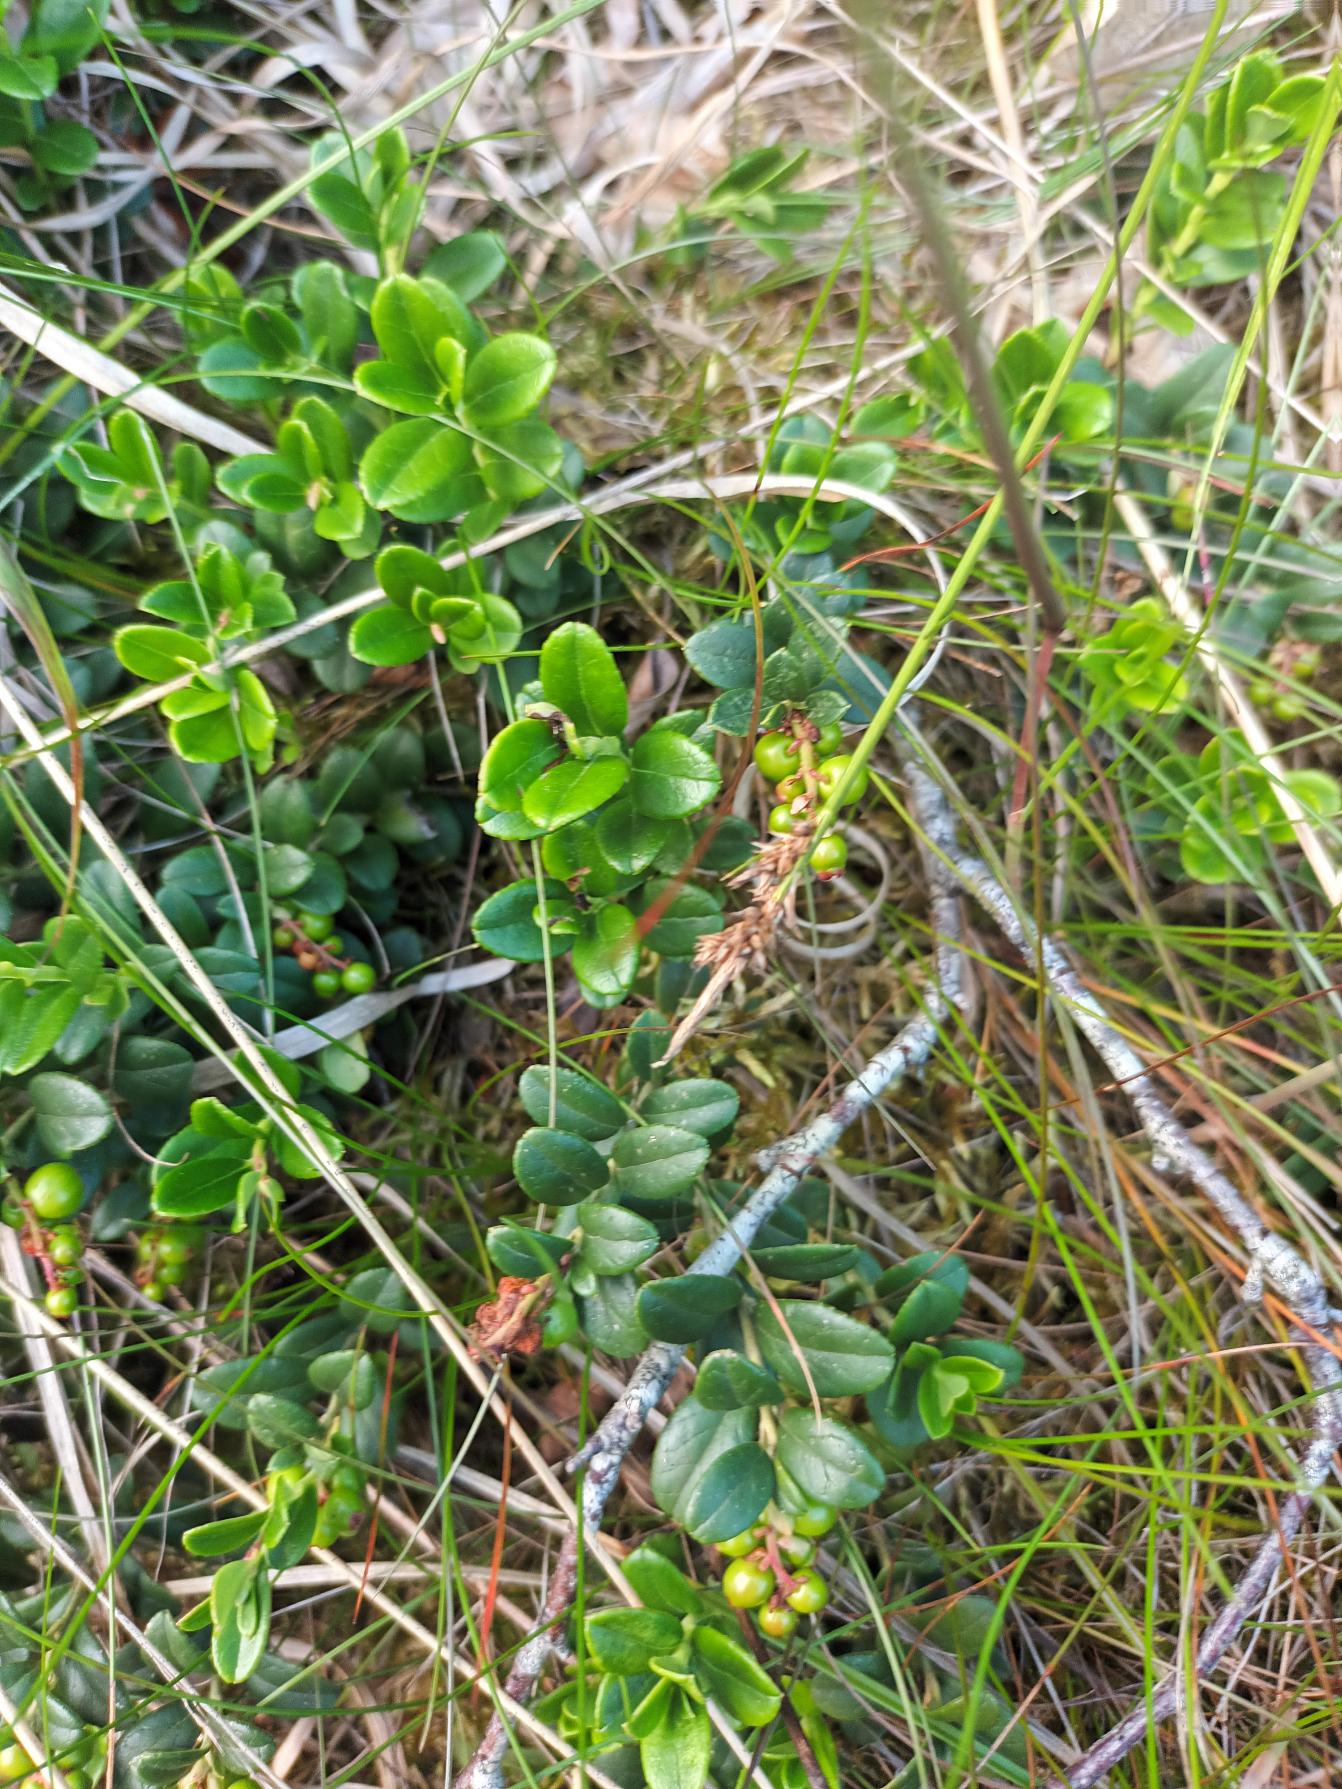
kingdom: Plantae
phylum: Tracheophyta
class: Liliopsida
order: Poales
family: Cyperaceae
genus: Carex
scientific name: Carex pilulifera
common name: Pille-star
